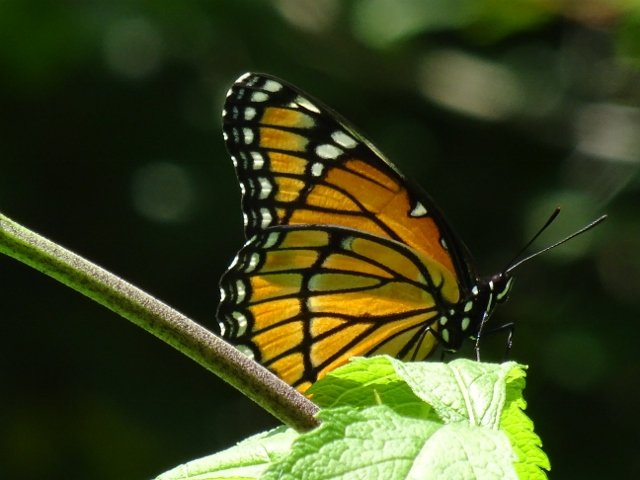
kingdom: Animalia
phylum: Arthropoda
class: Insecta
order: Lepidoptera
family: Nymphalidae
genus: Limenitis
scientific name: Limenitis archippus
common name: Viceroy
